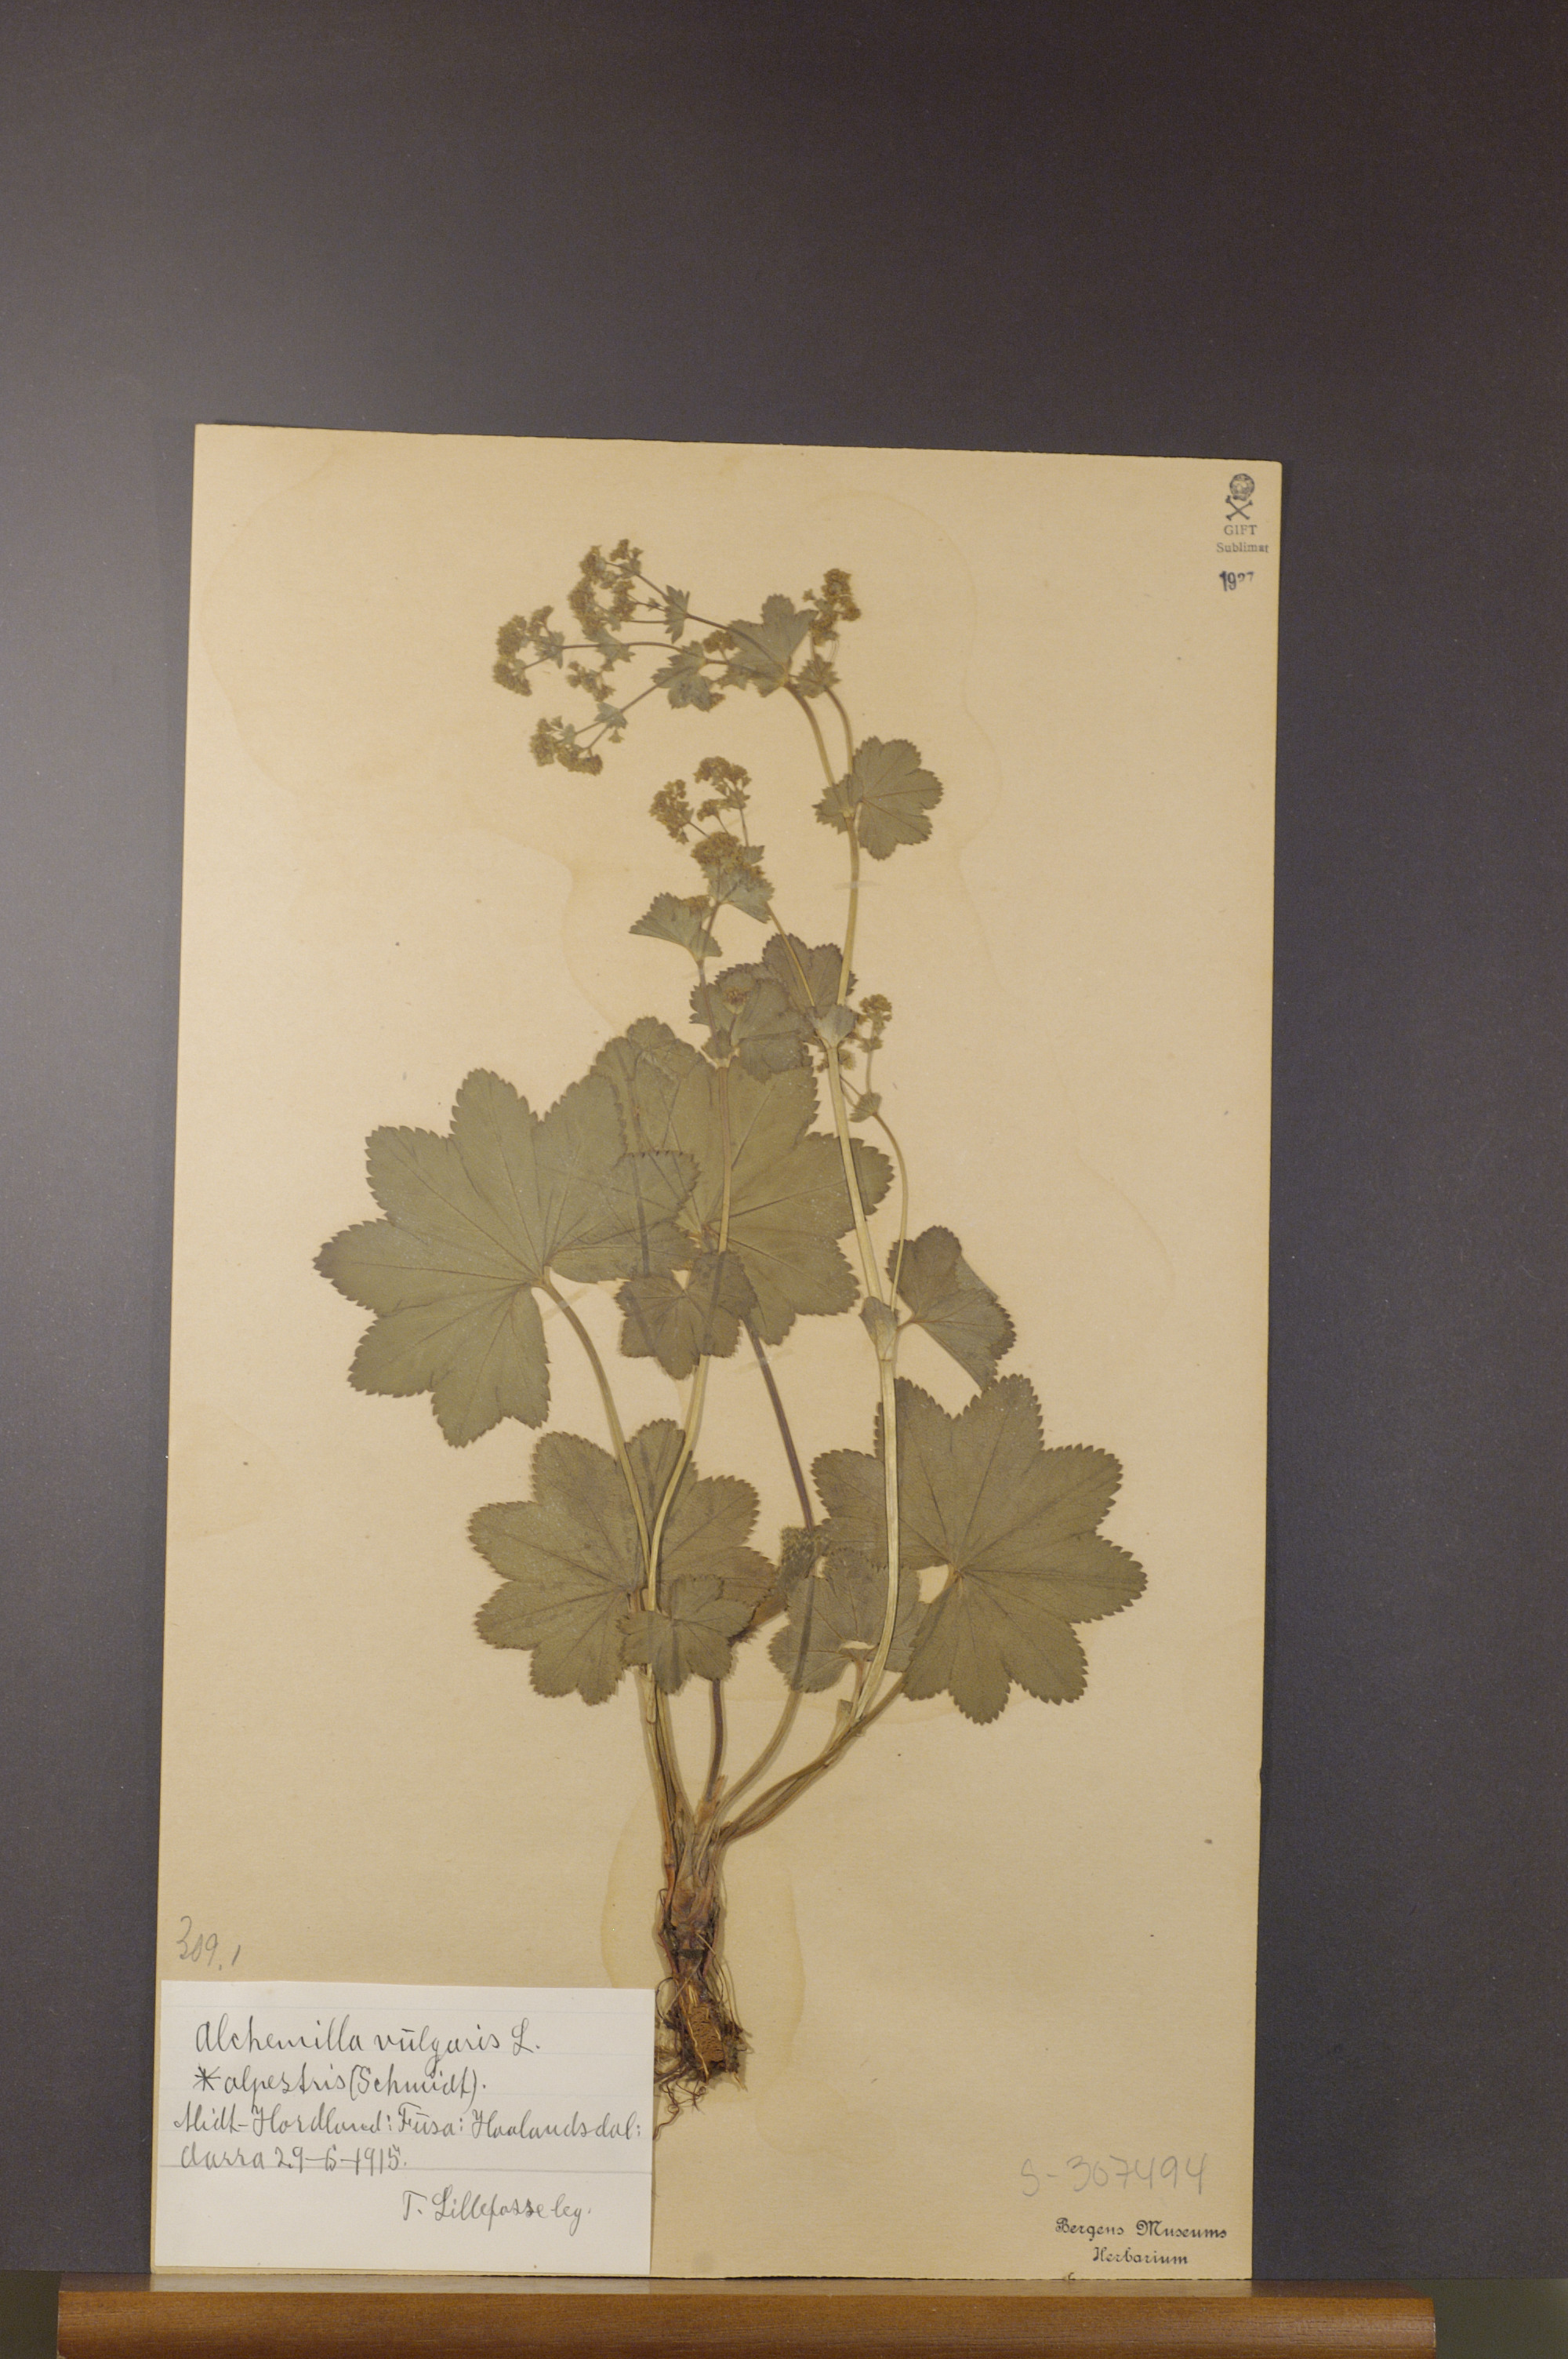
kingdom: Plantae
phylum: Tracheophyta
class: Magnoliopsida
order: Rosales
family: Rosaceae
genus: Alchemilla
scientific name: Alchemilla glabra
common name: Smooth lady's-mantle
